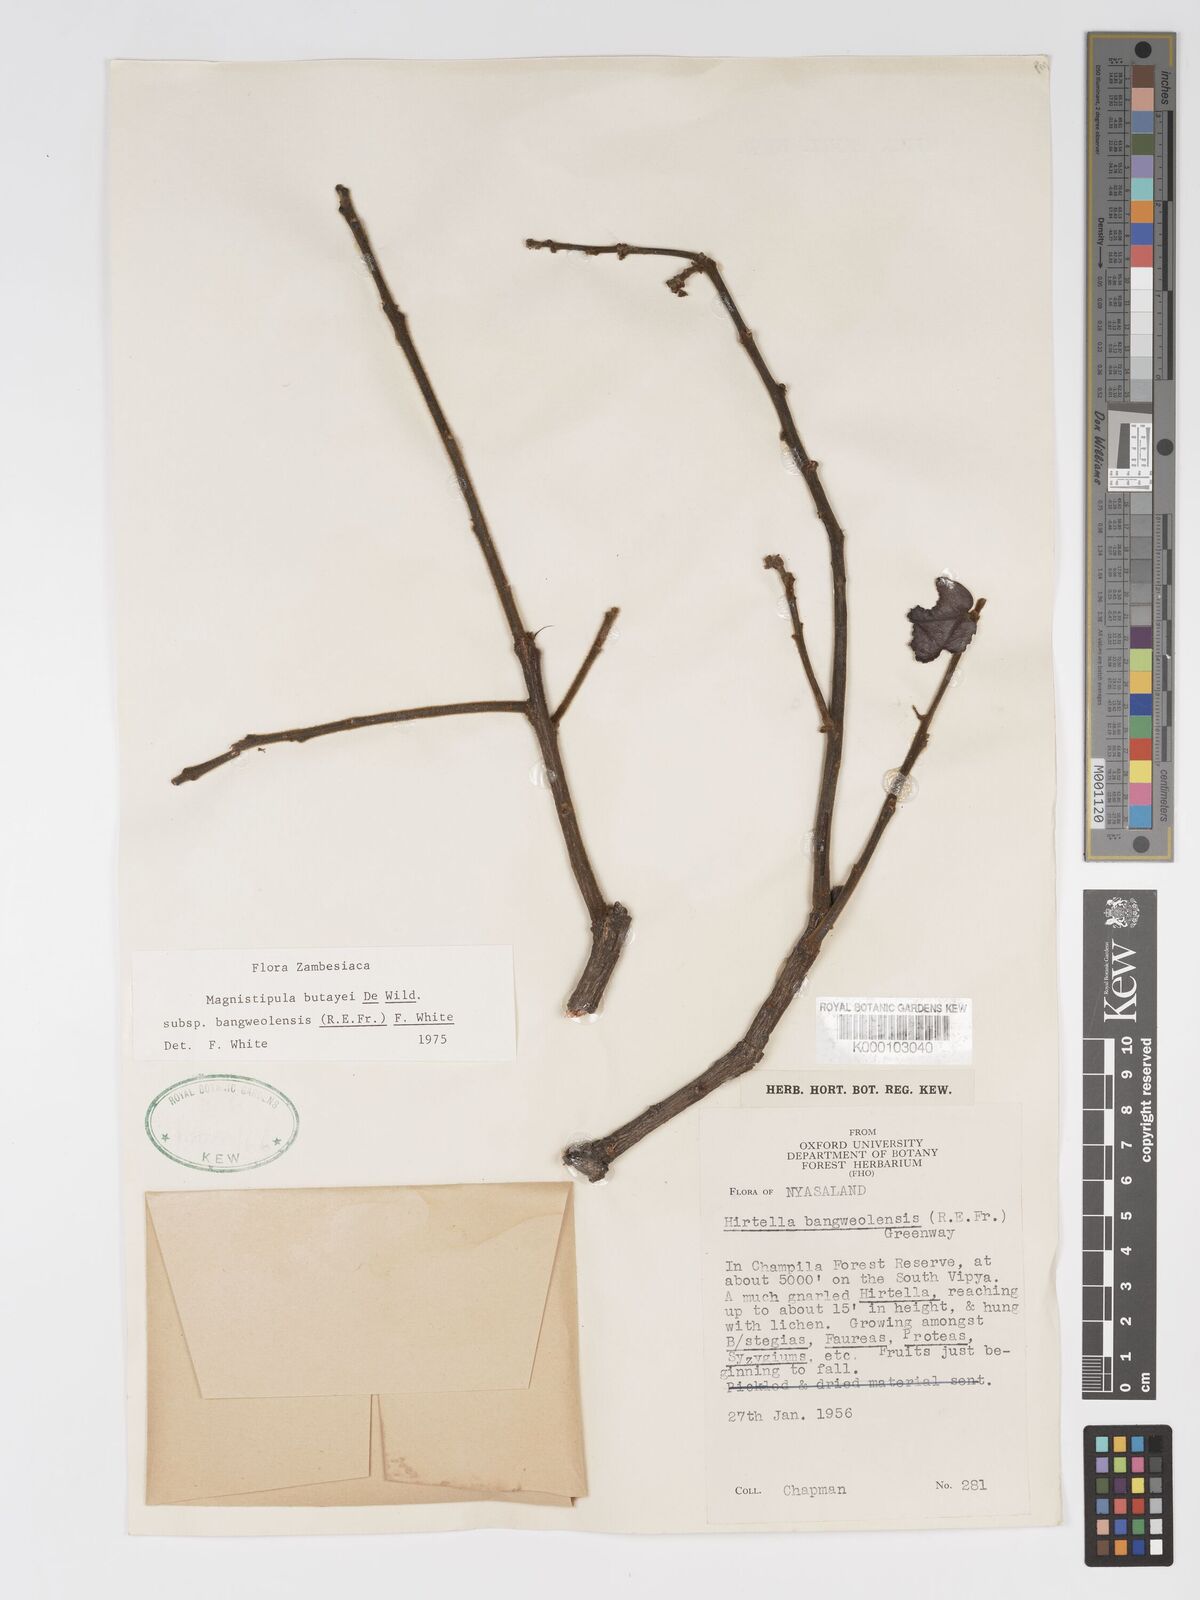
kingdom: Plantae
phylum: Tracheophyta
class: Magnoliopsida
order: Malpighiales
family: Chrysobalanaceae
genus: Magnistipula
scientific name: Magnistipula butayei
